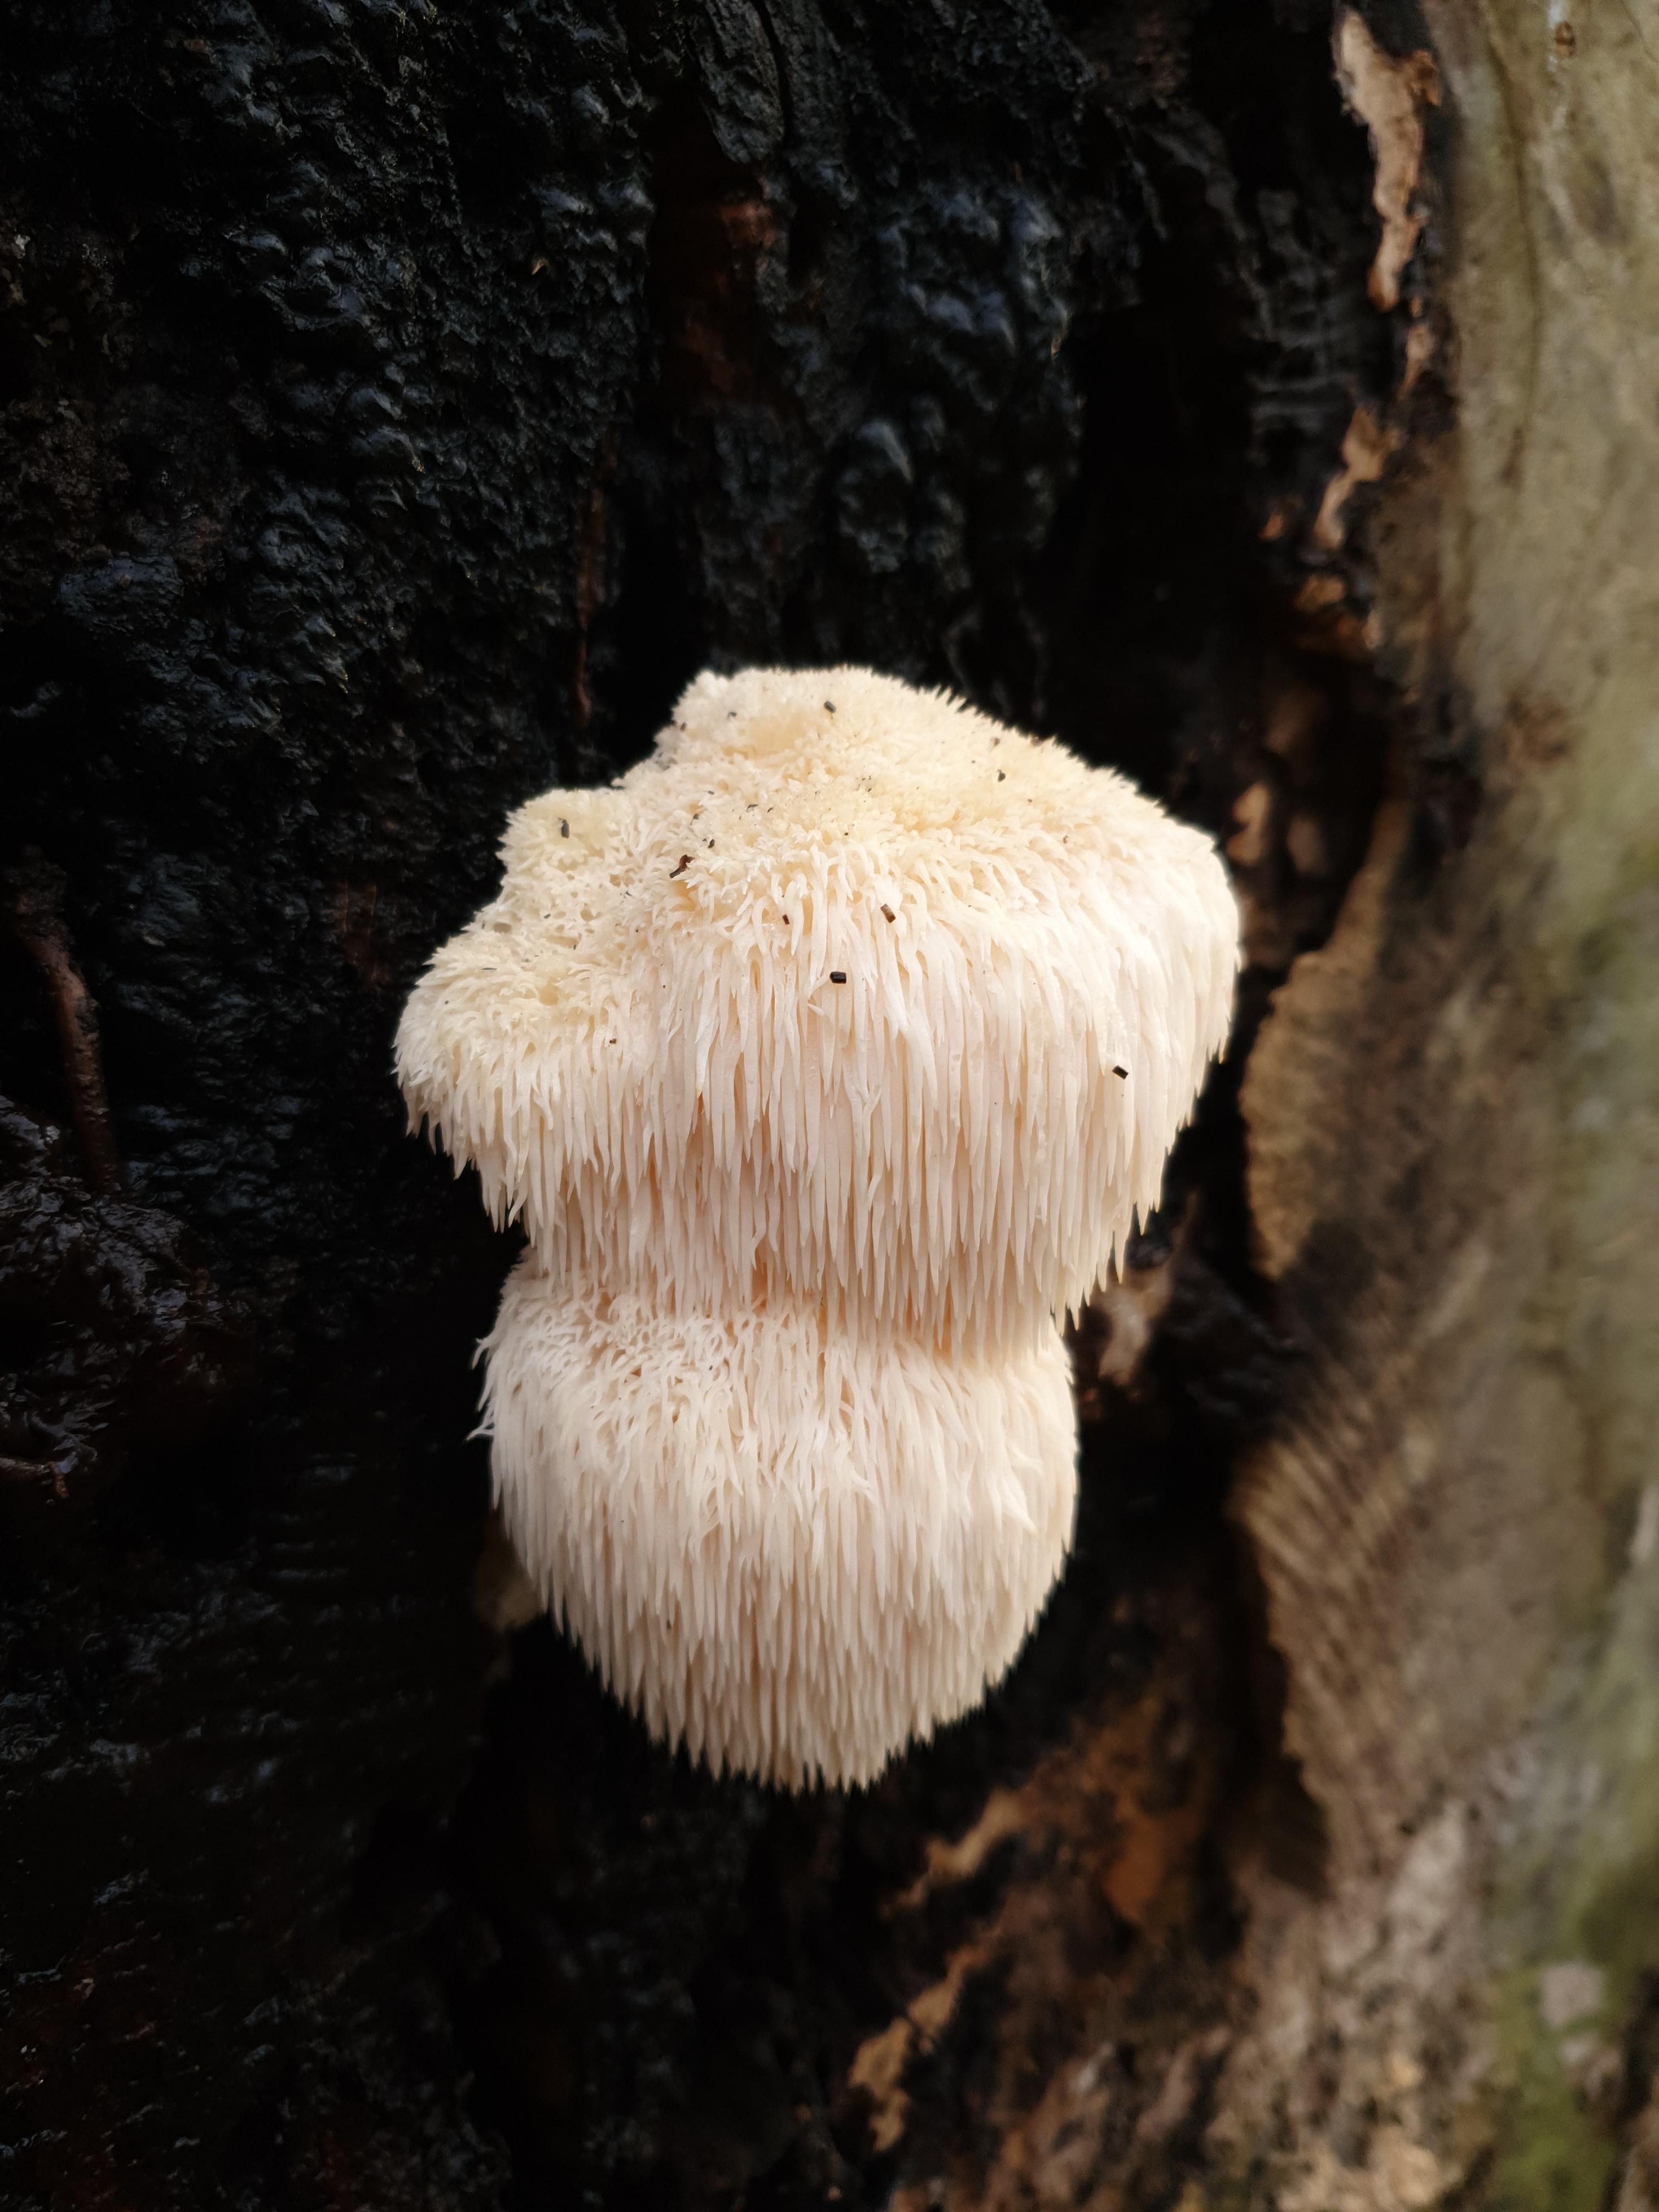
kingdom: Fungi
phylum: Basidiomycota
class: Agaricomycetes
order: Russulales
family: Hericiaceae
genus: Hericium
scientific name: Hericium erinaceus
